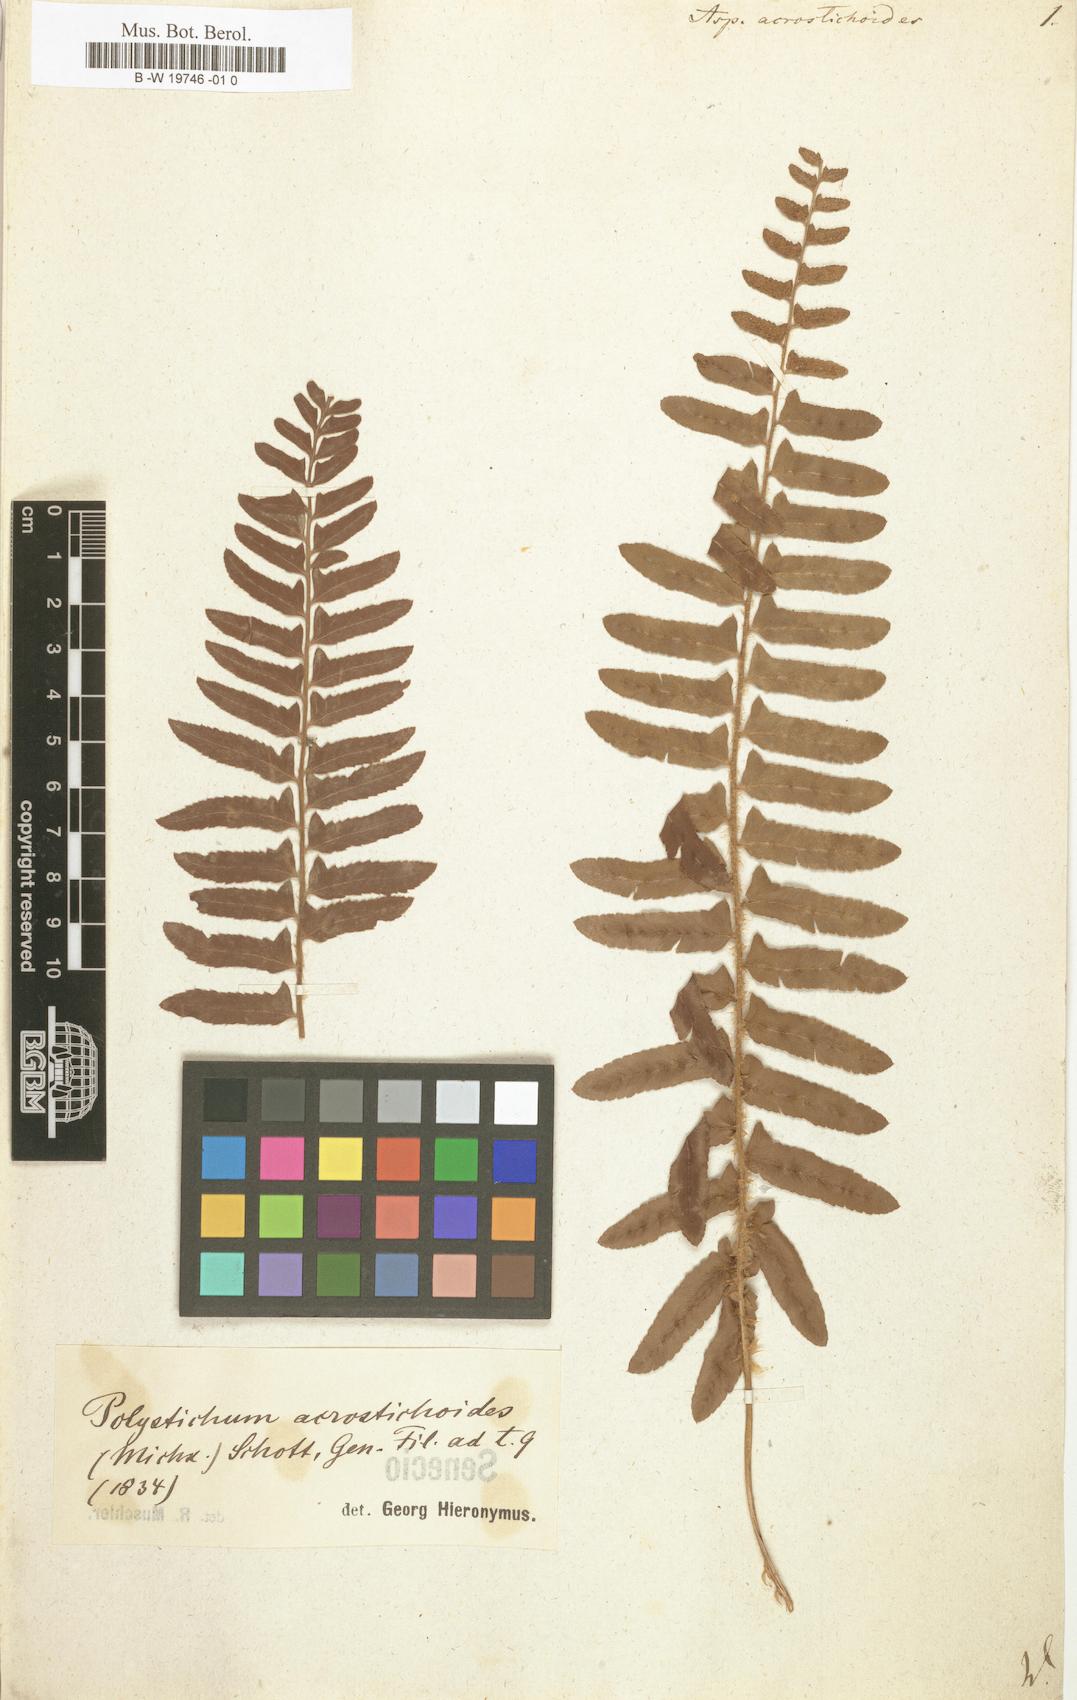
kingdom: Plantae
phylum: Tracheophyta
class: Polypodiopsida
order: Polypodiales
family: Dryopteridaceae
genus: Polystichum
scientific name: Polystichum acrostichoides
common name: Christmas fern
